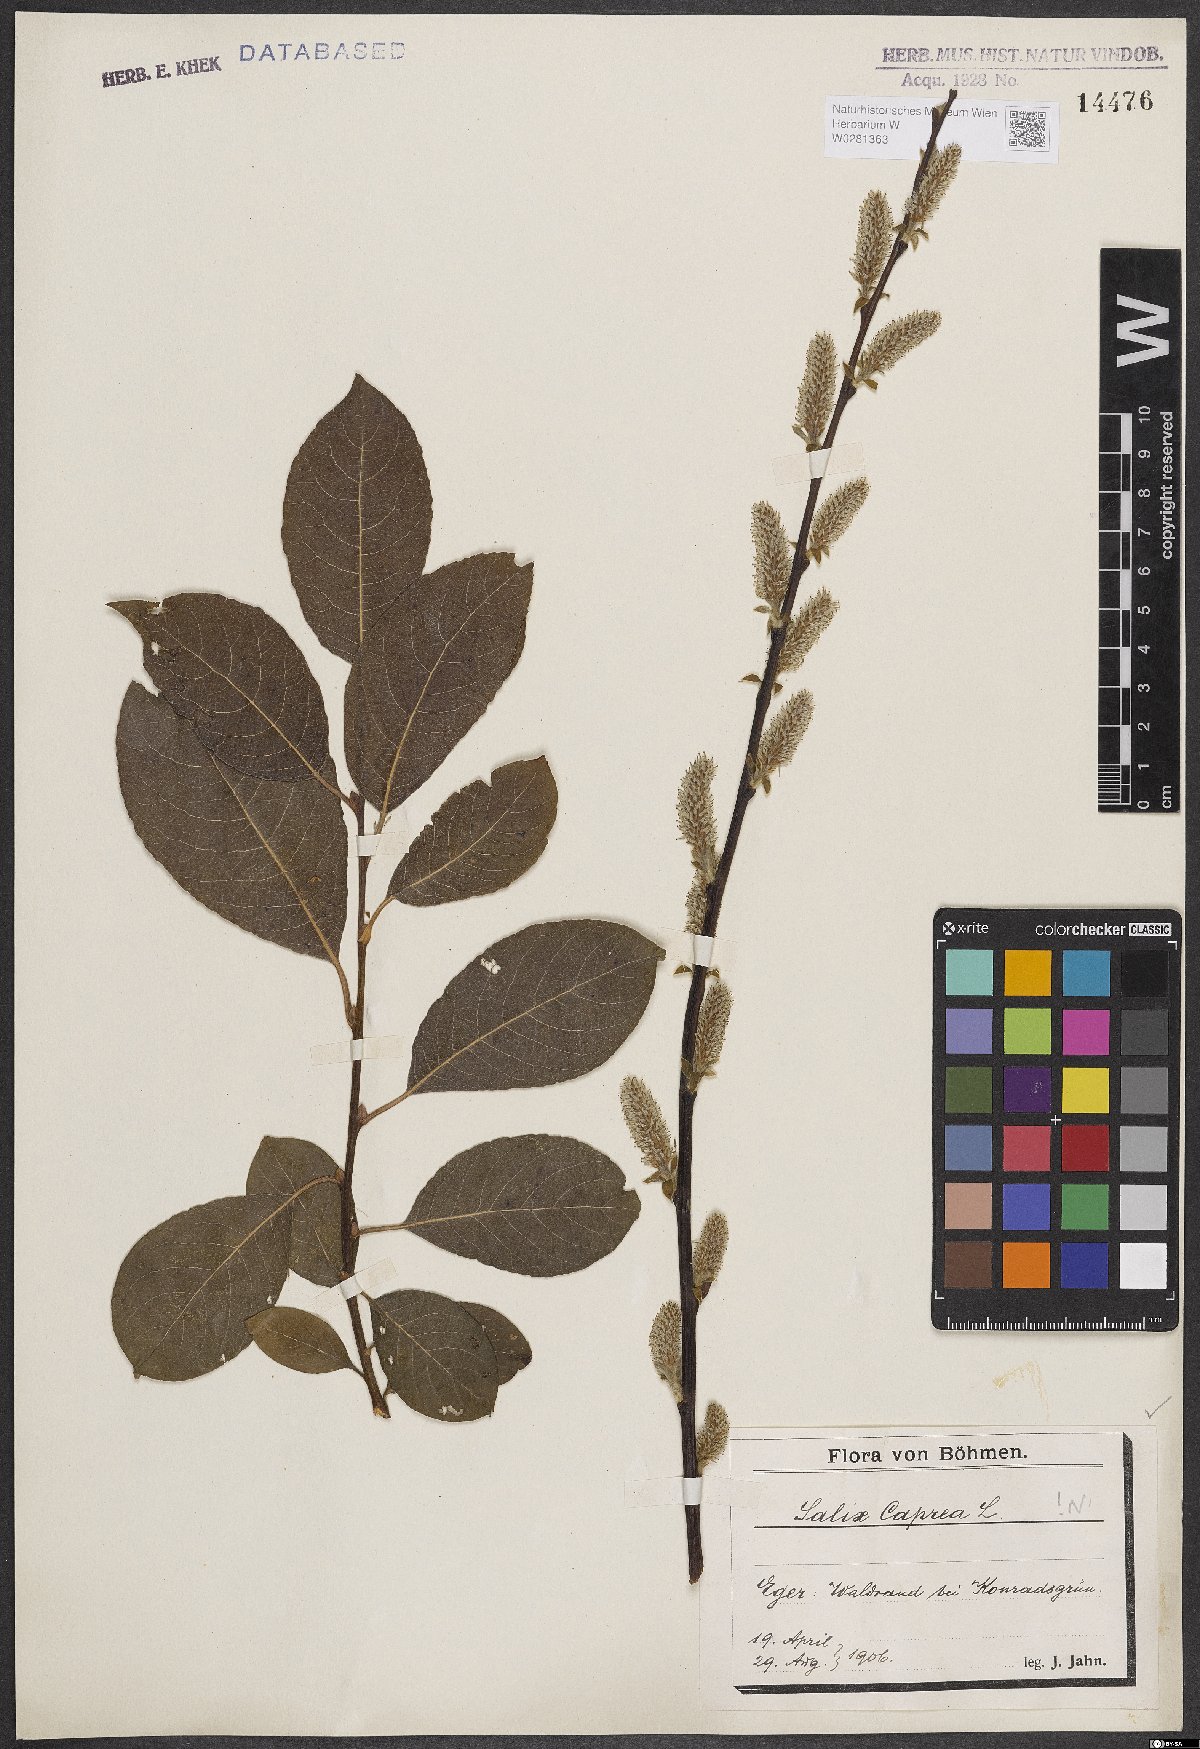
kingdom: Plantae
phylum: Tracheophyta
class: Magnoliopsida
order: Malpighiales
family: Salicaceae
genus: Salix
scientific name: Salix caprea
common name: Goat willow
